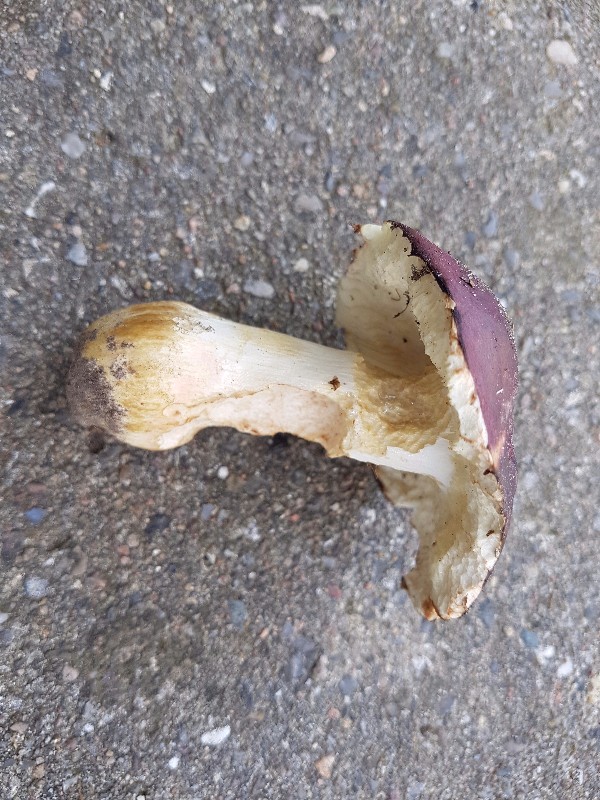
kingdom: Fungi
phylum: Basidiomycota
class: Agaricomycetes
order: Russulales
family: Russulaceae
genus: Russula
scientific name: Russula graveolens
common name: bugtet skørhat
